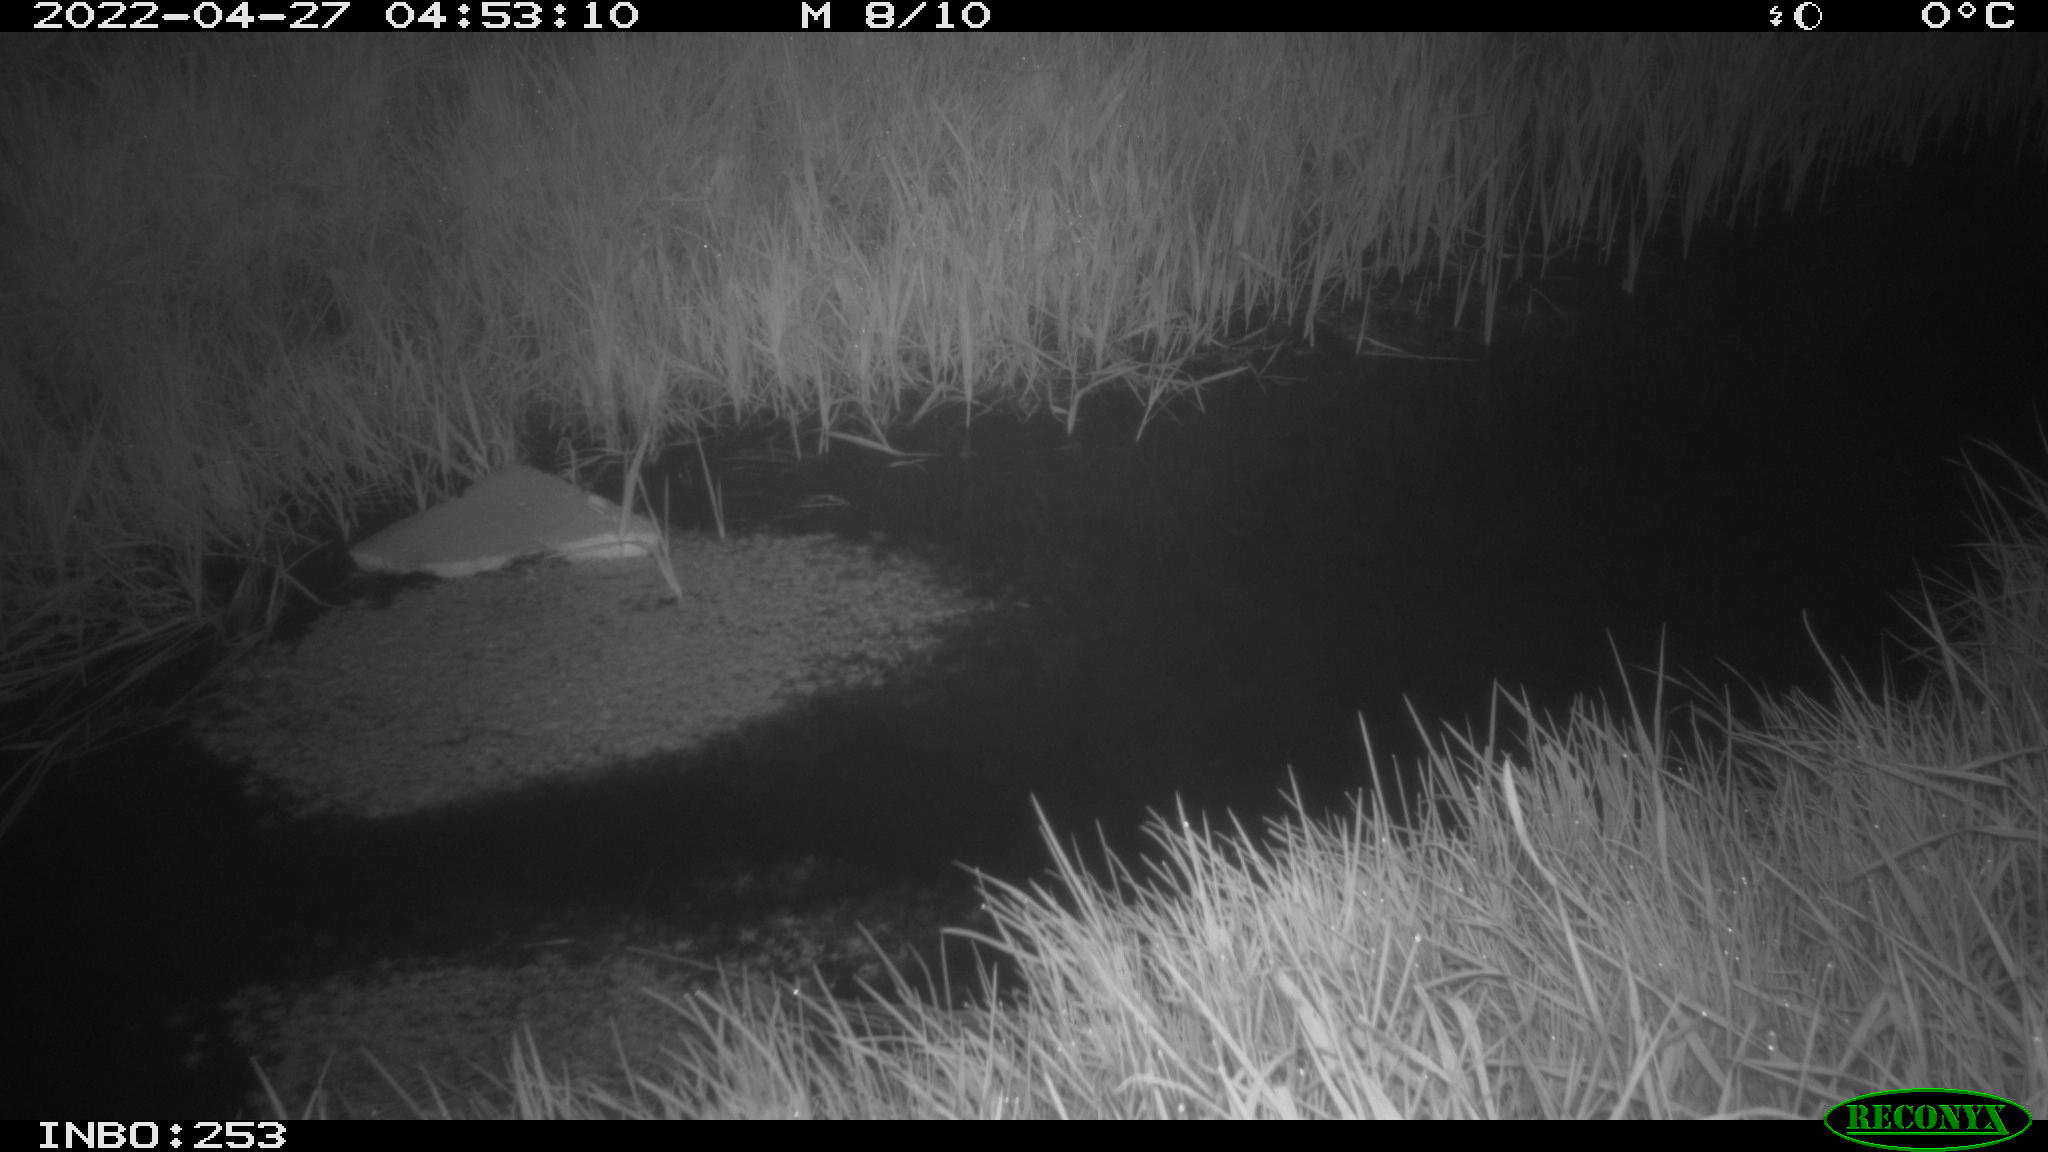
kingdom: Animalia
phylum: Chordata
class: Aves
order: Anseriformes
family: Anatidae
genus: Anas
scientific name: Anas platyrhynchos
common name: Mallard
